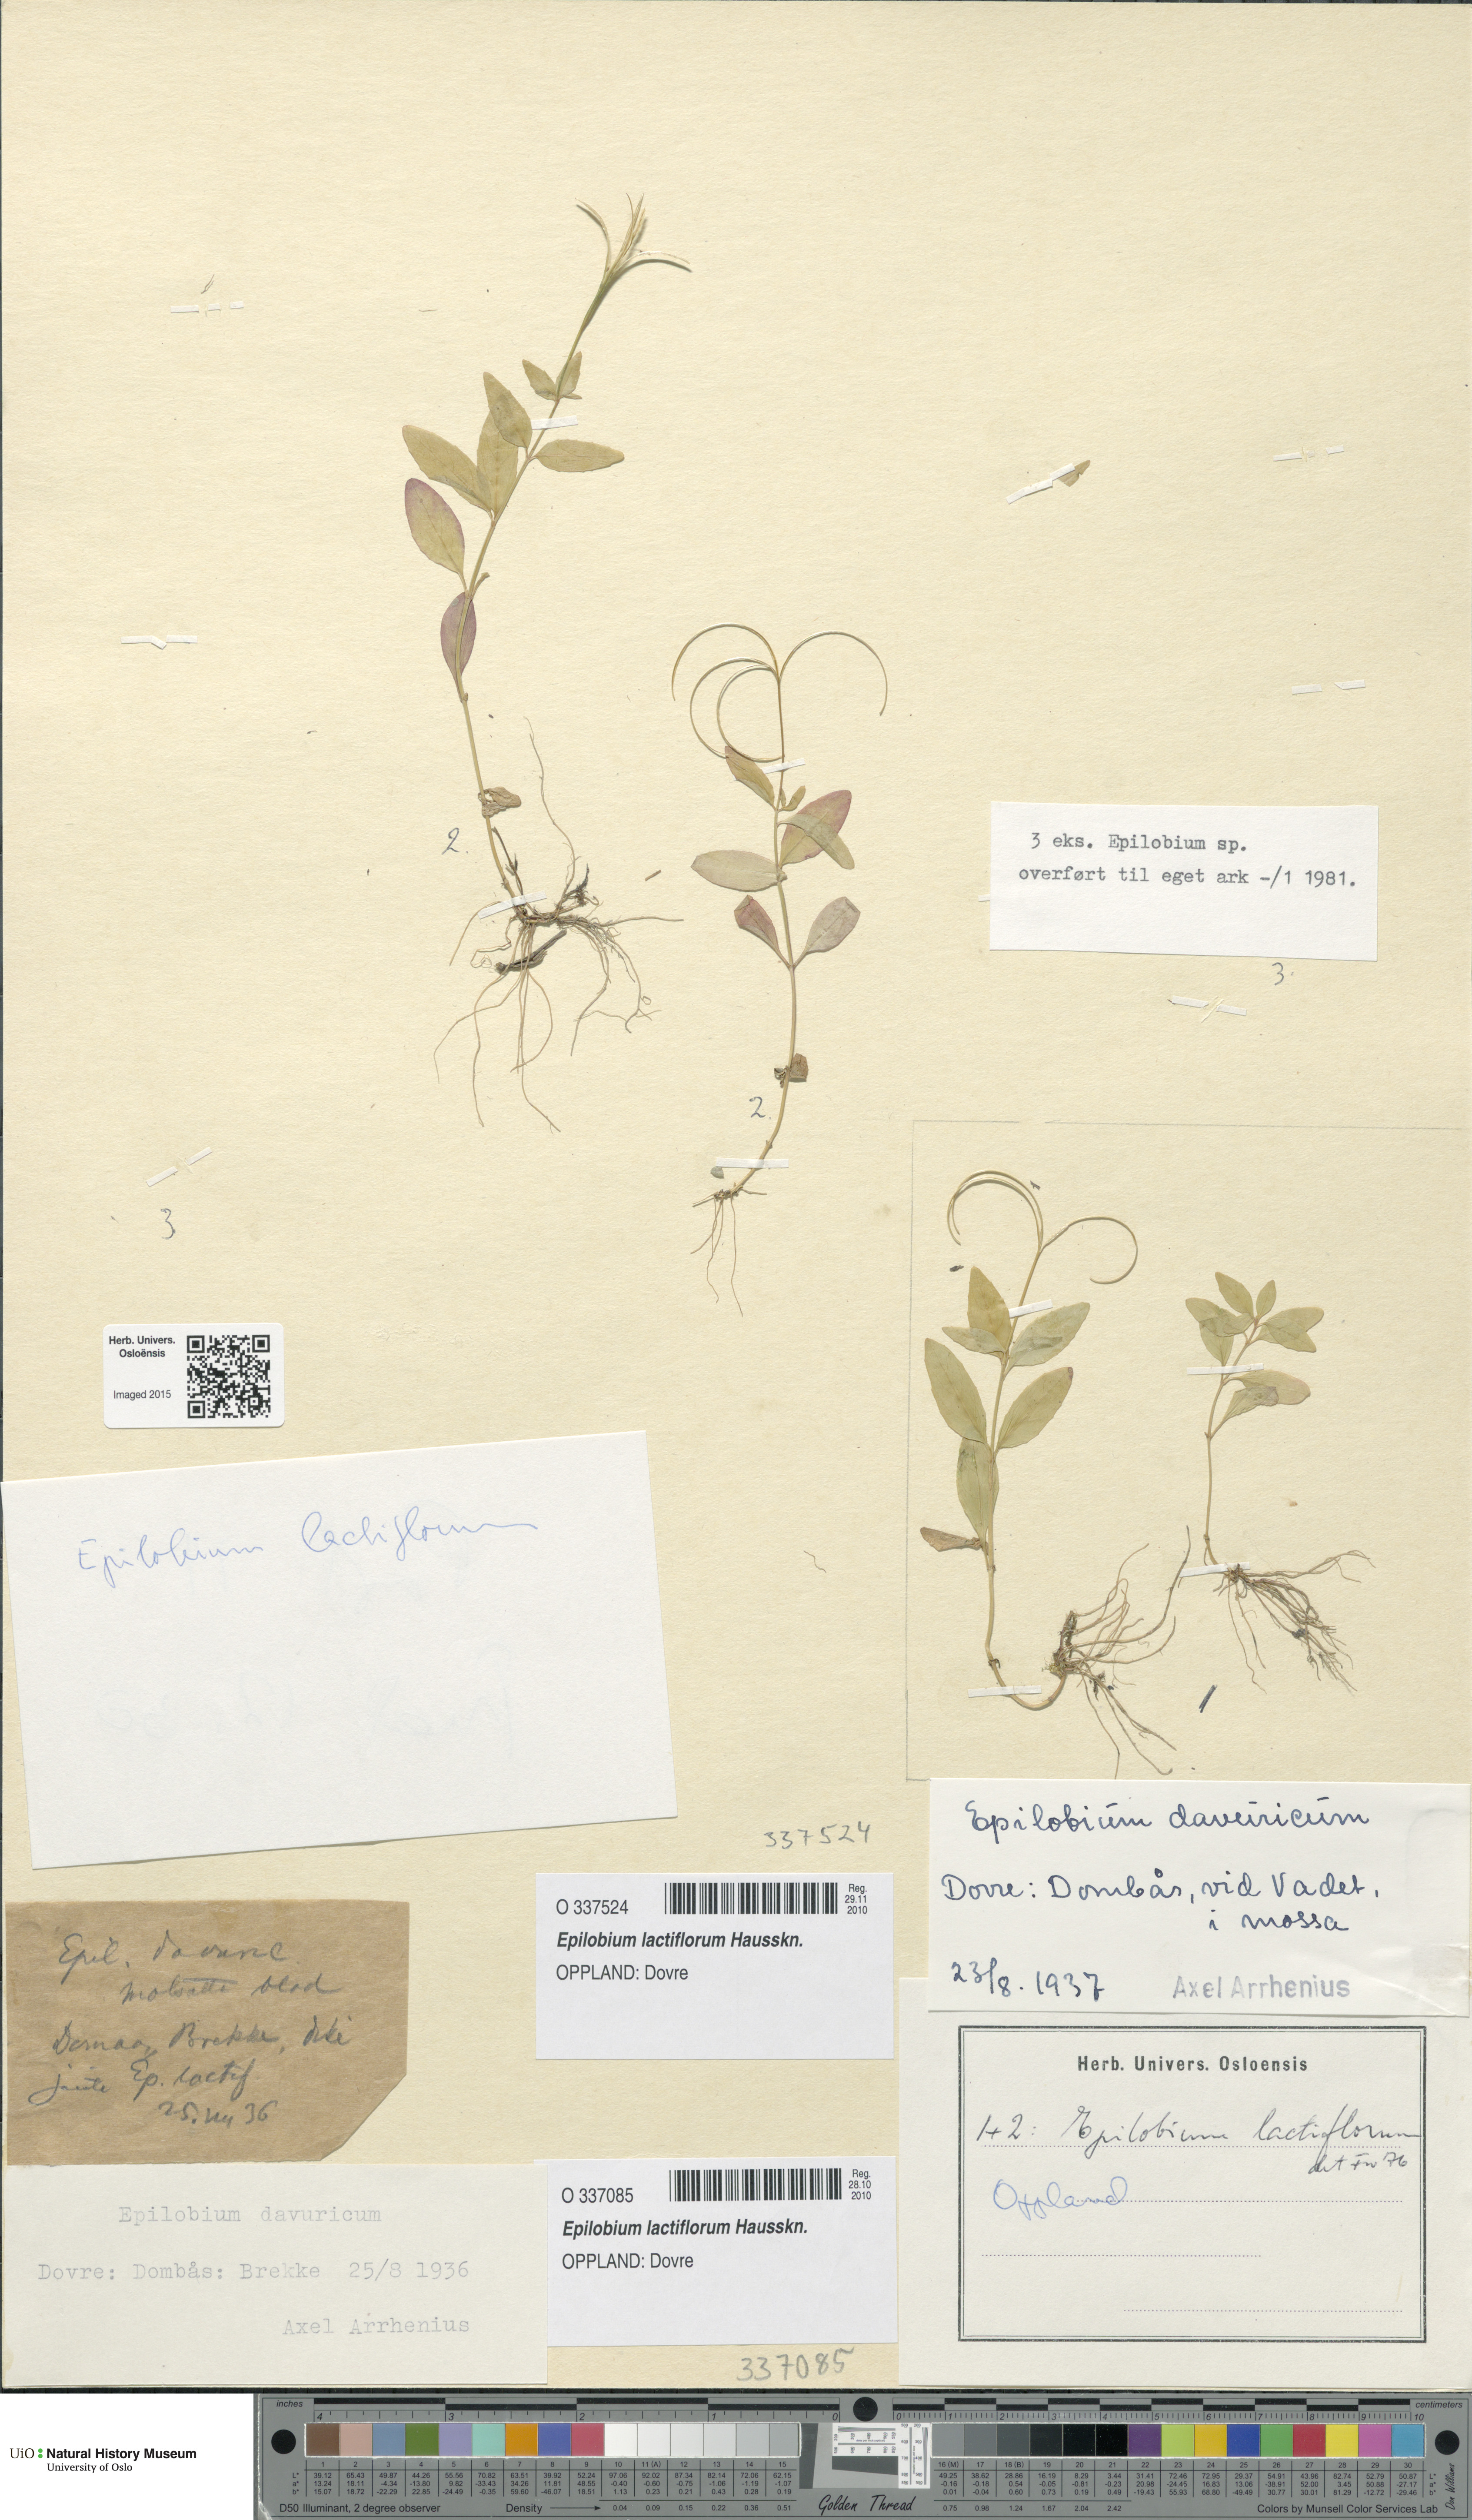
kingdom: Plantae
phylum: Tracheophyta
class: Magnoliopsida
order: Myrtales
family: Onagraceae
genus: Epilobium
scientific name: Epilobium lactiflorum
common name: Milkflower willowherb
